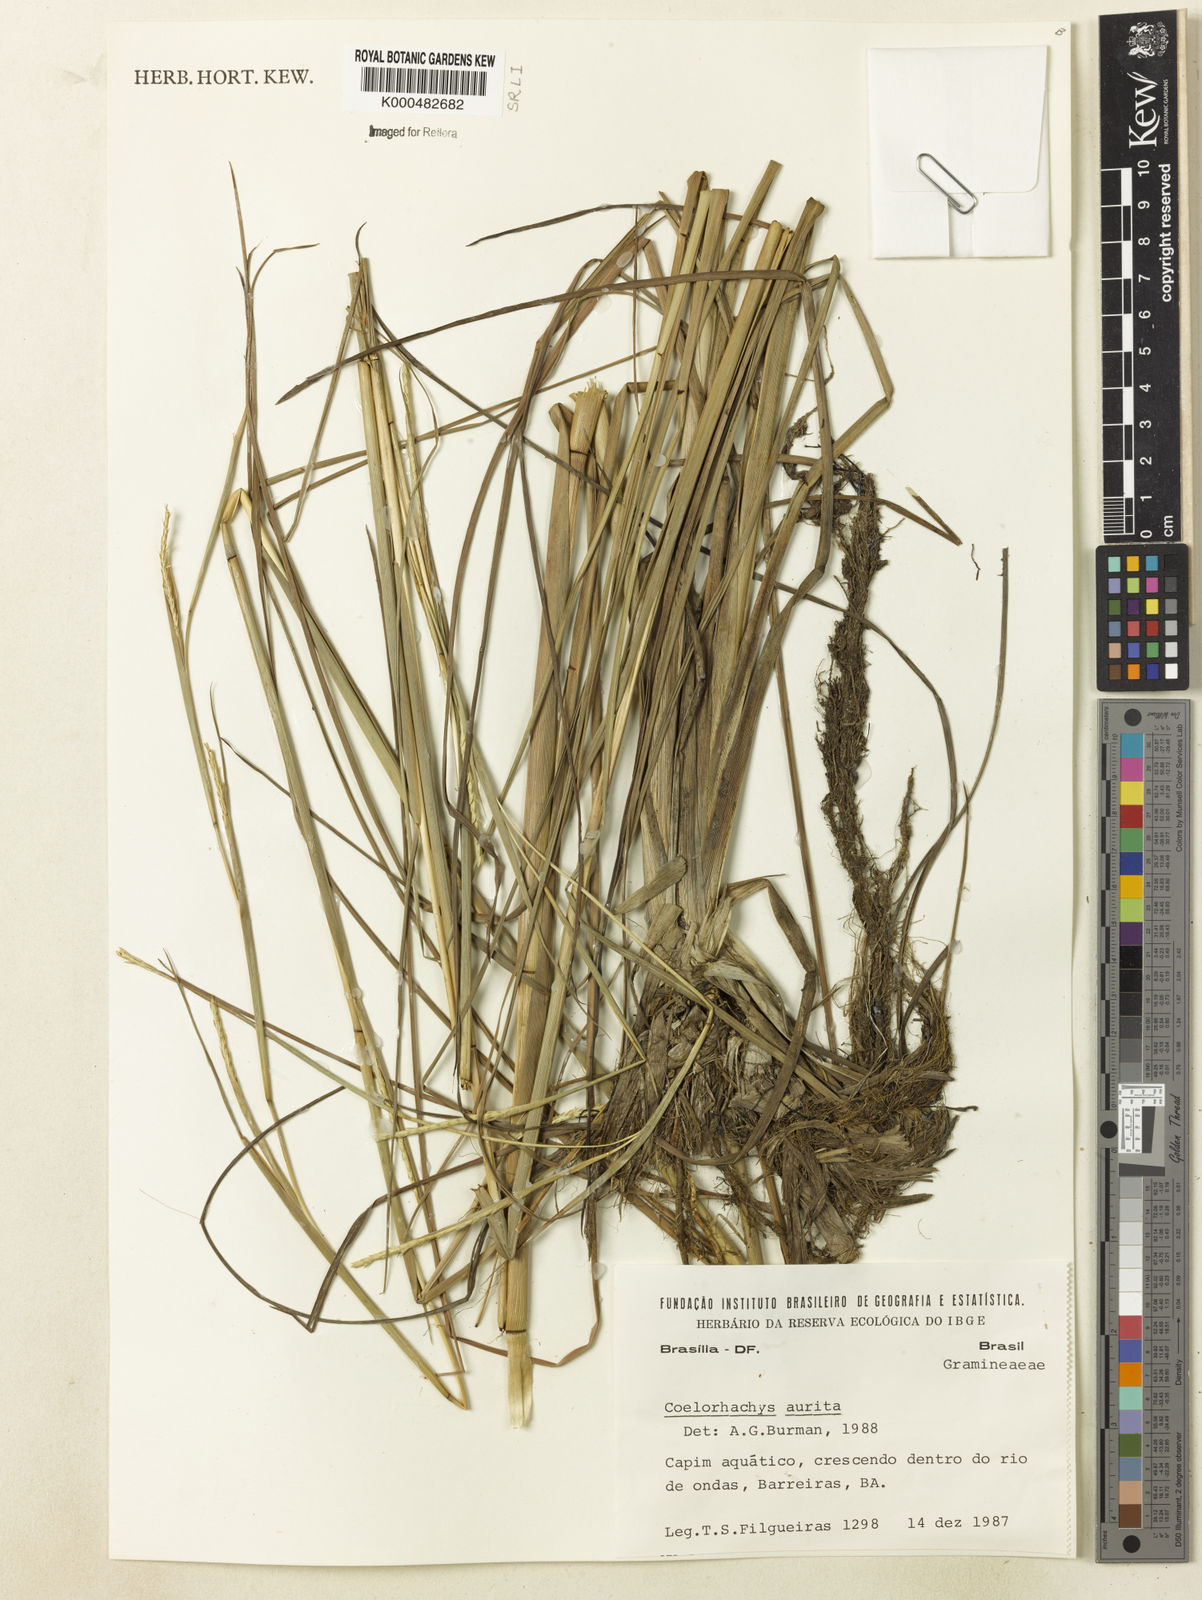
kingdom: Plantae
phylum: Tracheophyta
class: Liliopsida
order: Poales
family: Poaceae
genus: Rottboellia
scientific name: Rottboellia aurita
